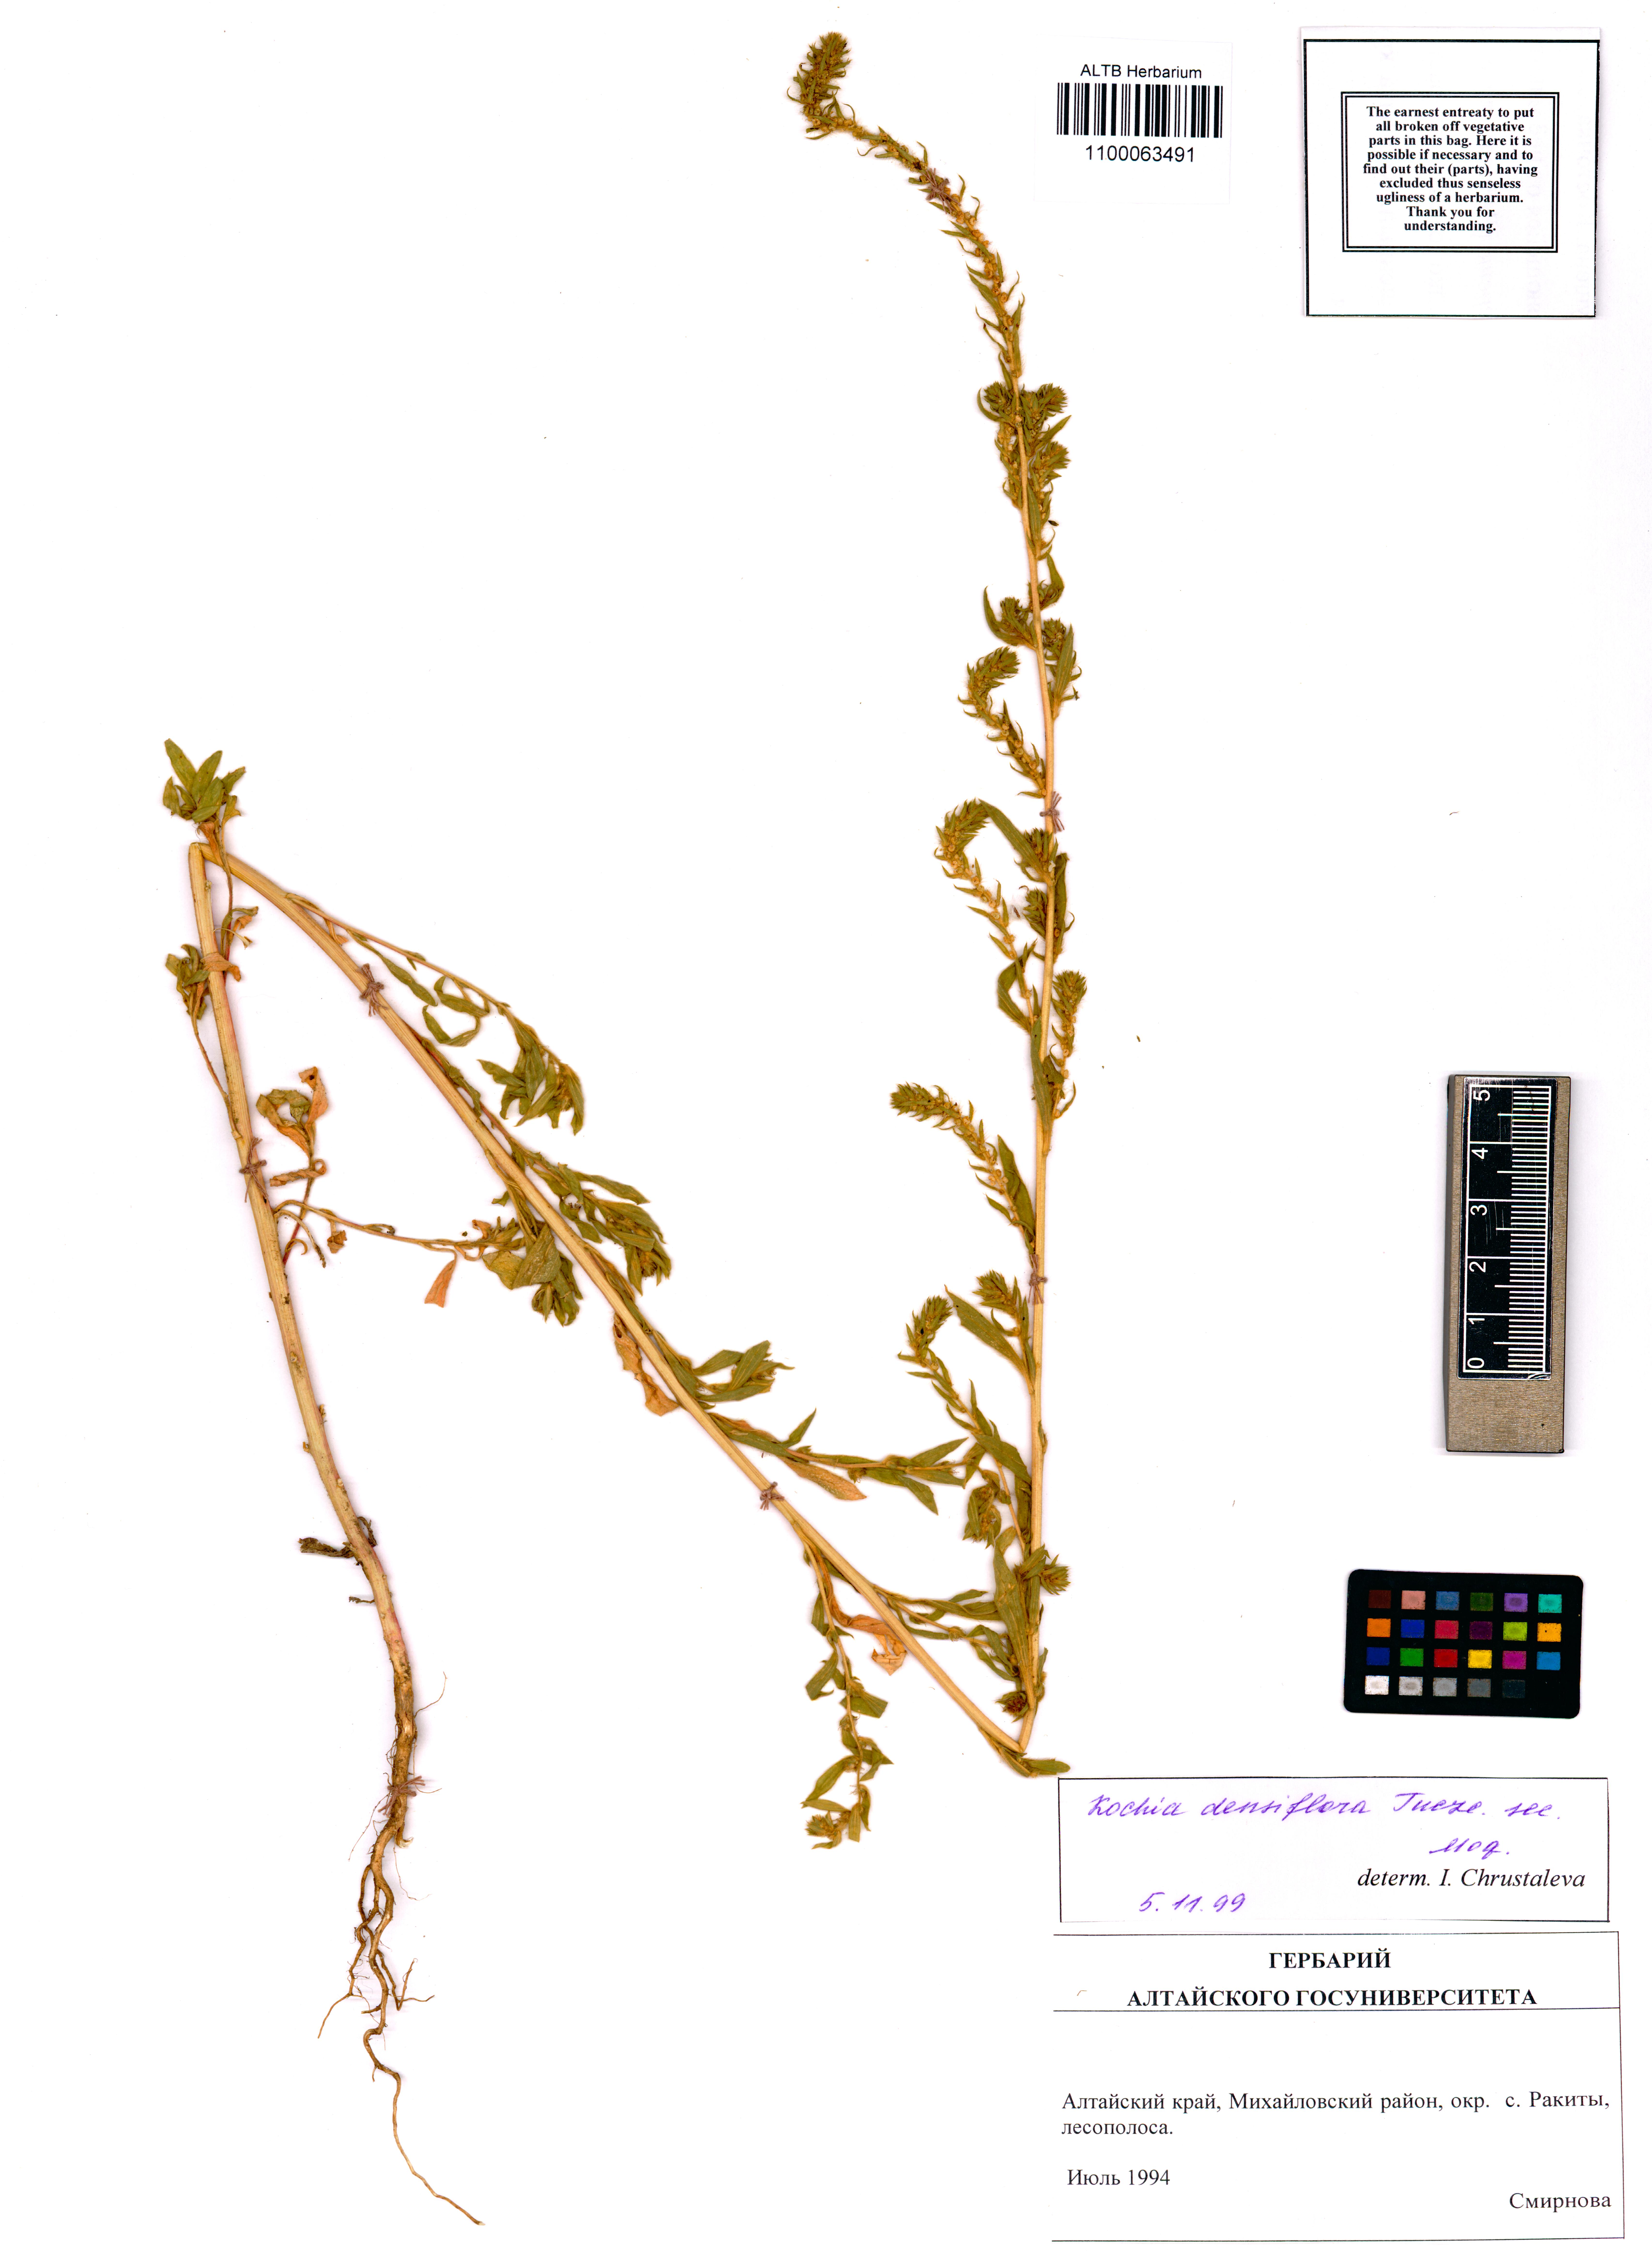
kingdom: Plantae
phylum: Tracheophyta
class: Magnoliopsida
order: Caryophyllales
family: Amaranthaceae
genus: Bassia
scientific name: Bassia scoparia
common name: Belvedere
